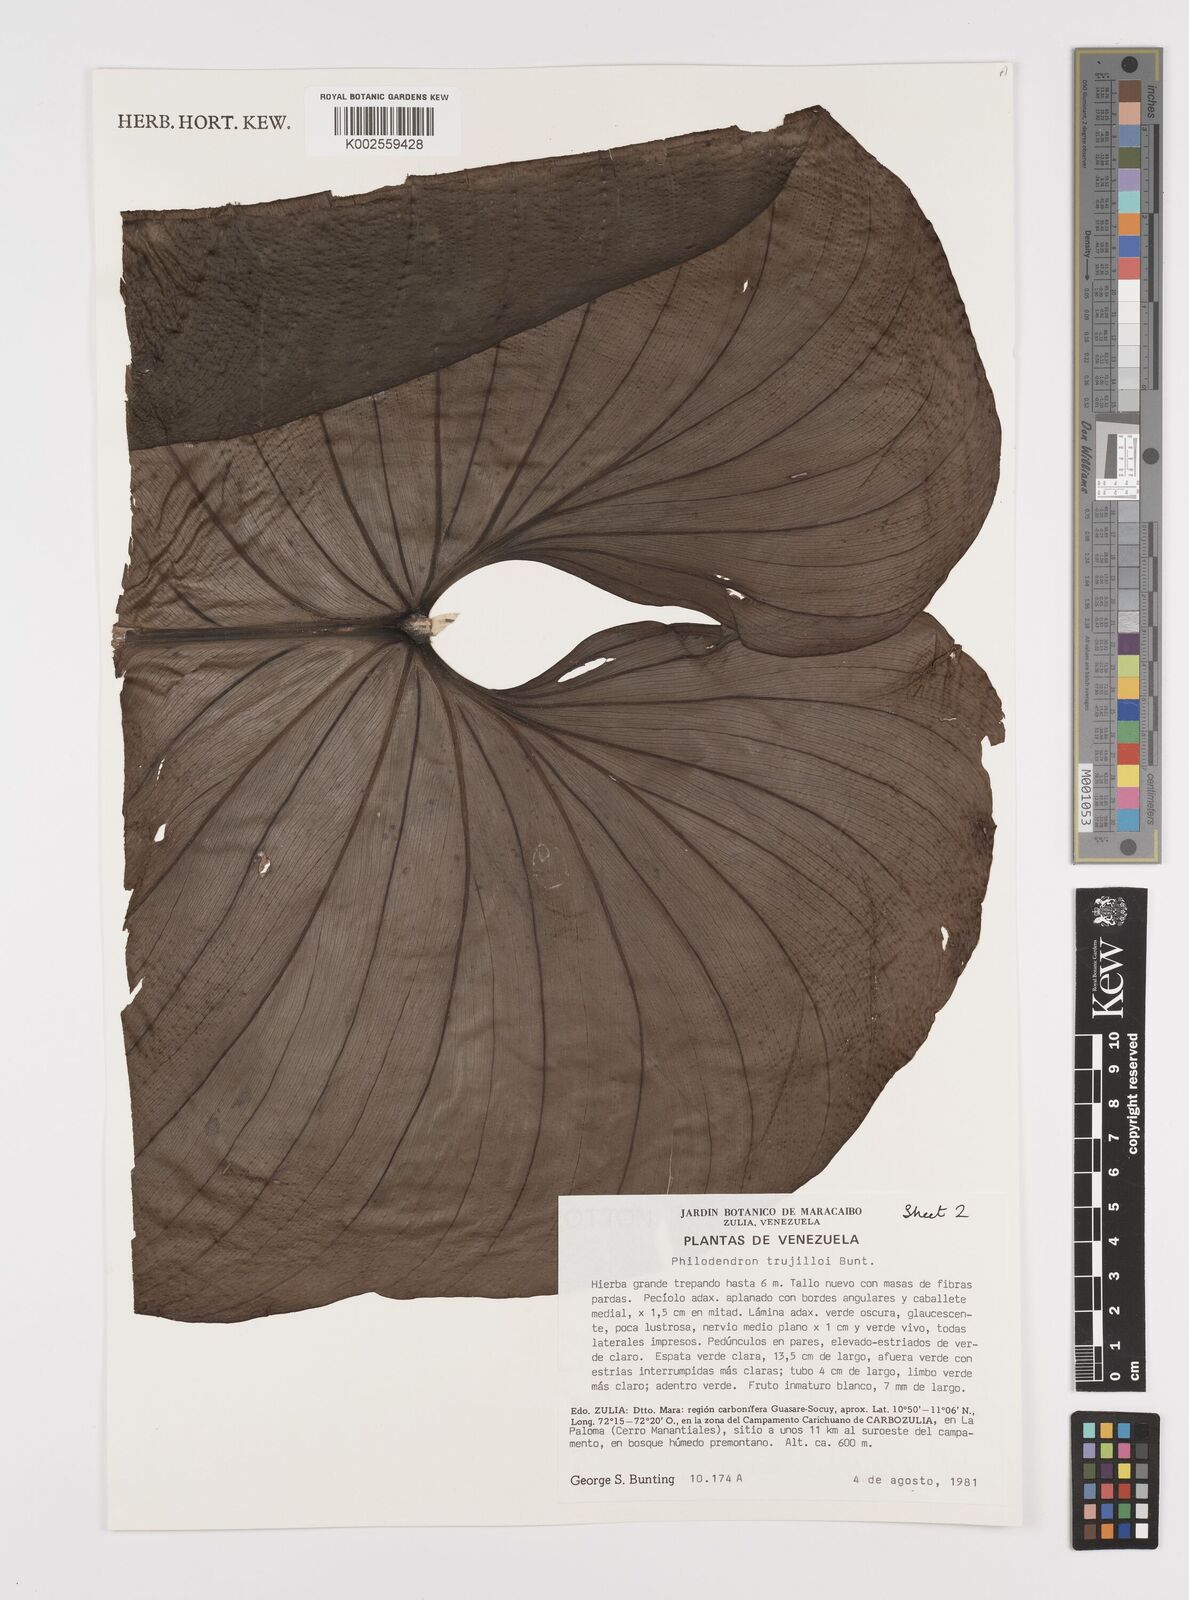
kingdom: Plantae
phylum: Tracheophyta
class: Liliopsida
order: Alismatales
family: Araceae
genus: Philodendron
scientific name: Philodendron trujilloi
